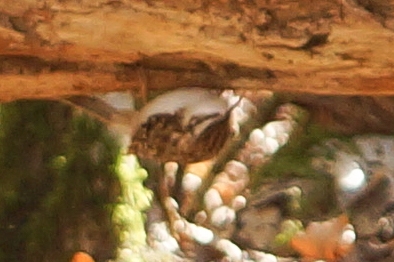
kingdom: Animalia
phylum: Chordata
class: Aves
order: Passeriformes
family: Certhiidae
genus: Certhia
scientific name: Certhia familiaris
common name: Træløber
